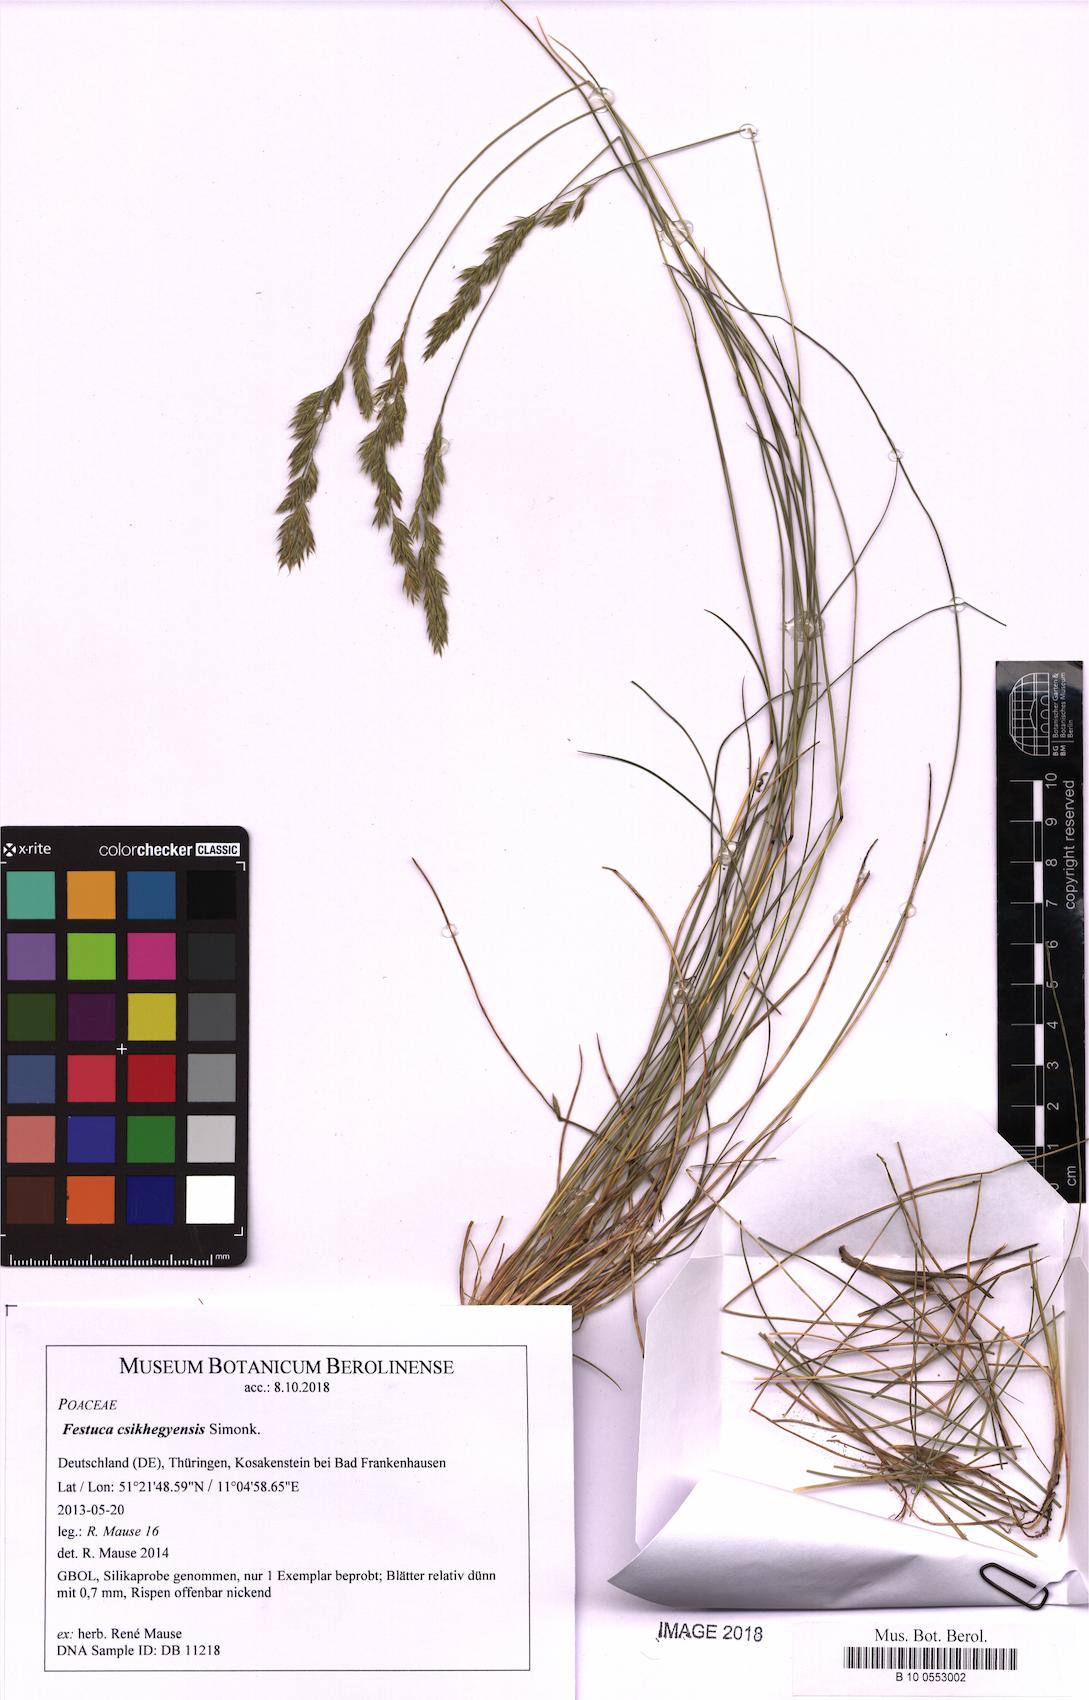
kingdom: Plantae
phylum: Tracheophyta
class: Liliopsida
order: Poales
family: Poaceae
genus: Festuca
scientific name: Festuca csikhegyensis
